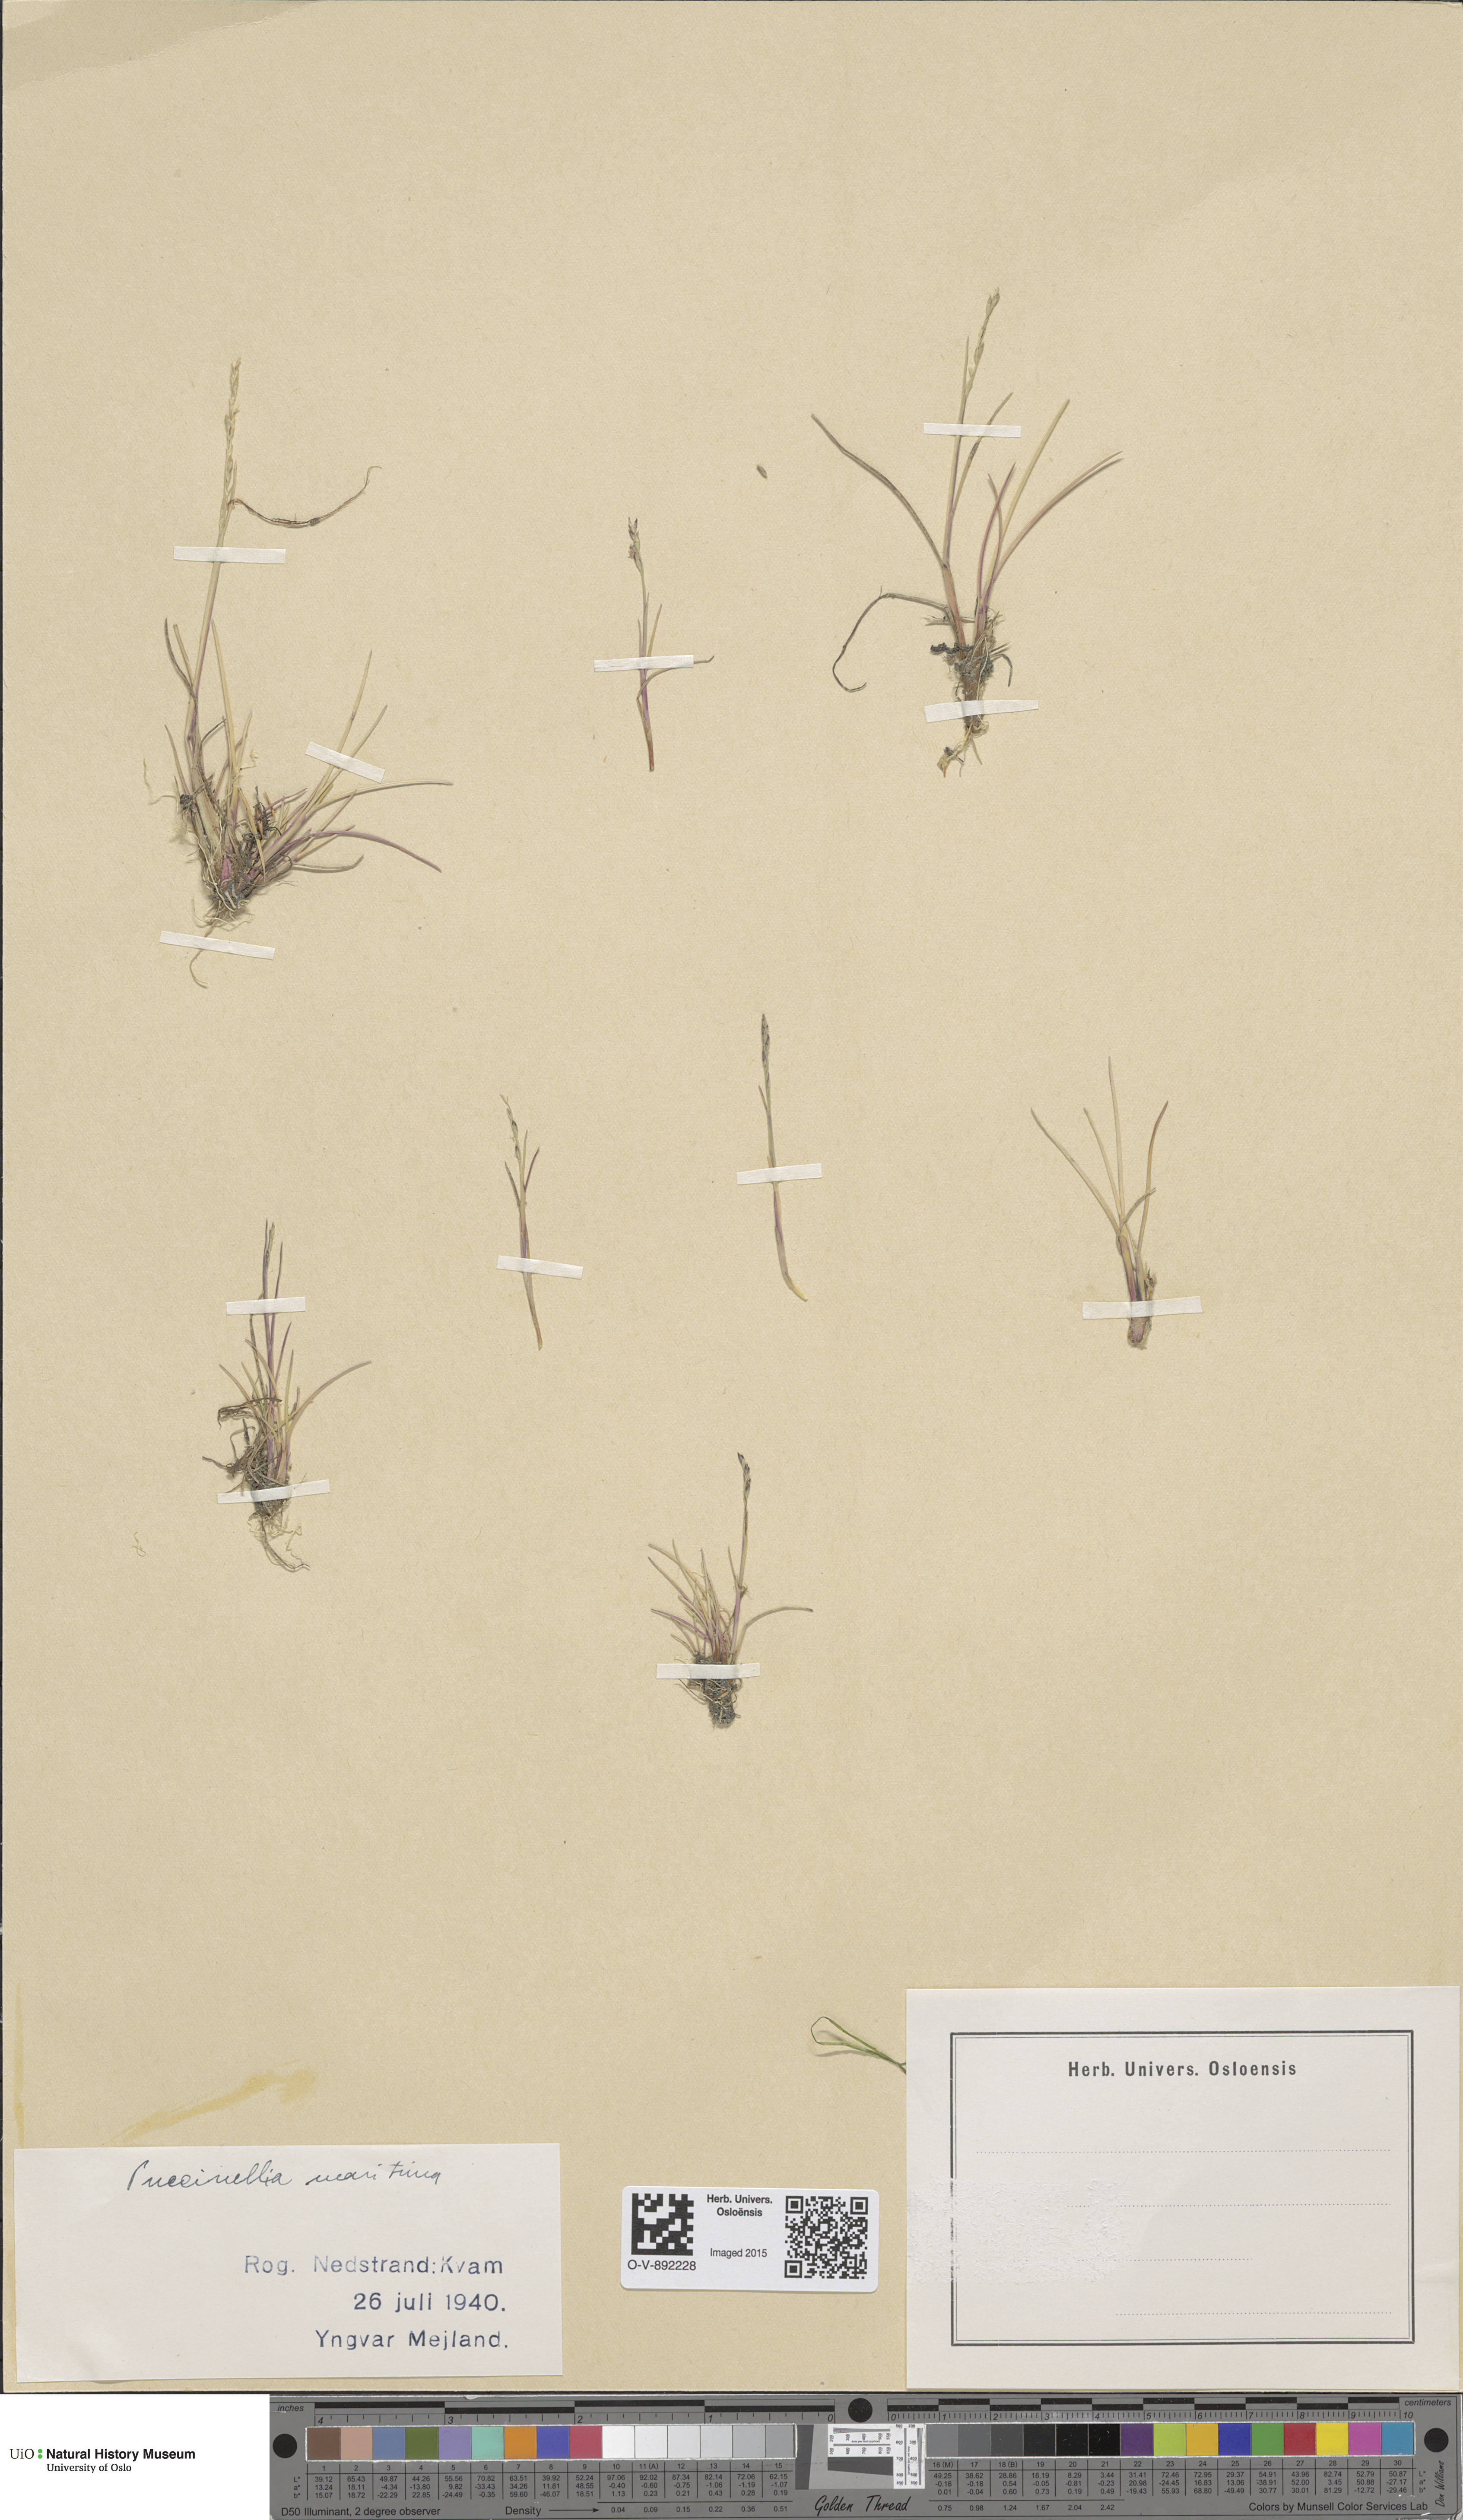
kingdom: Plantae
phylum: Tracheophyta
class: Liliopsida
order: Poales
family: Poaceae
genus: Puccinellia
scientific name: Puccinellia maritima
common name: Common saltmarsh grass
